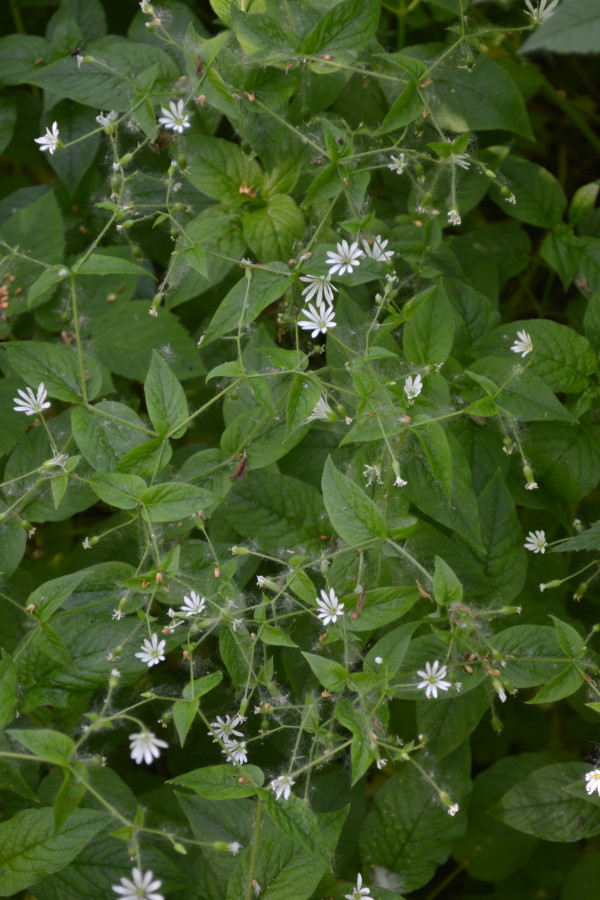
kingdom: Plantae
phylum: Tracheophyta
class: Magnoliopsida
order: Caryophyllales
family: Caryophyllaceae
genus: Stellaria
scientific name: Stellaria nemorum
